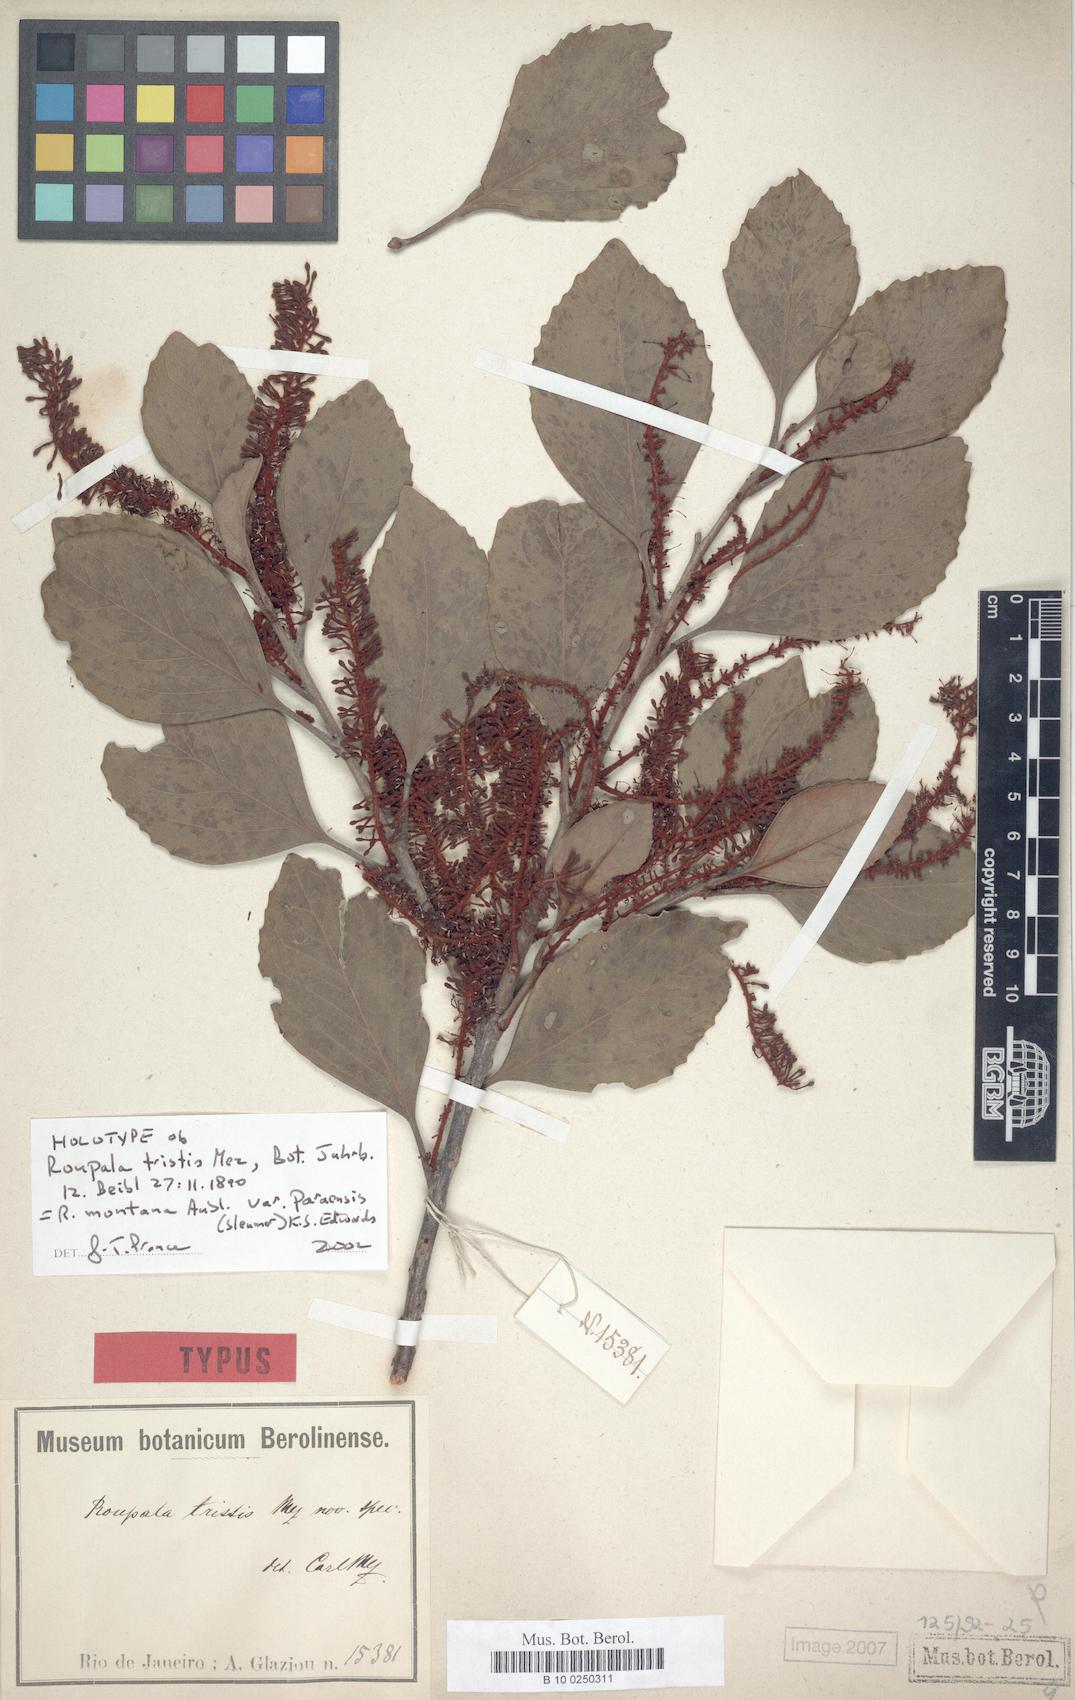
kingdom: Plantae
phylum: Tracheophyta
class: Magnoliopsida
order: Proteales
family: Proteaceae
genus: Roupala
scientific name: Roupala montana
